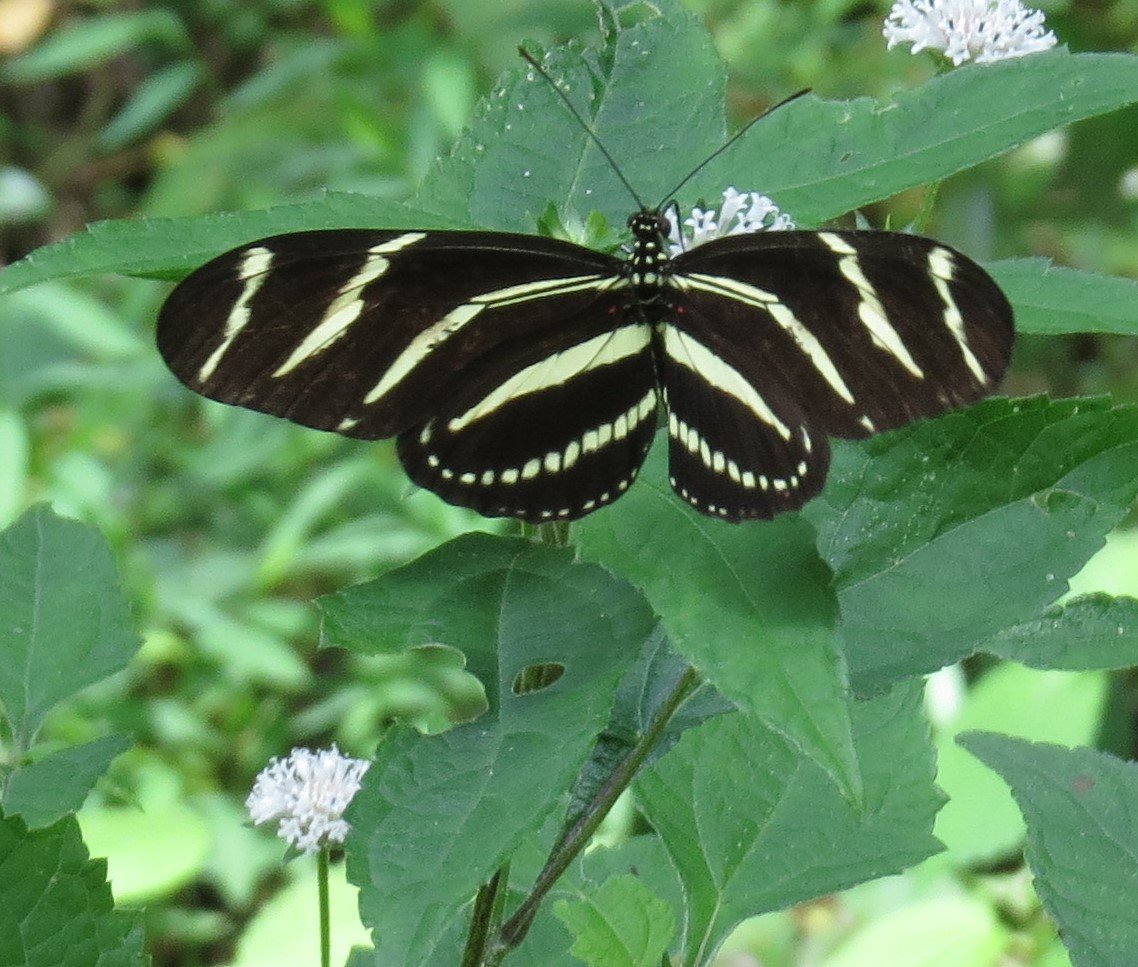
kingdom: Animalia
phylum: Arthropoda
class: Insecta
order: Lepidoptera
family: Nymphalidae
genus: Heliconius
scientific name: Heliconius charithonia
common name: Zebra Longwing
